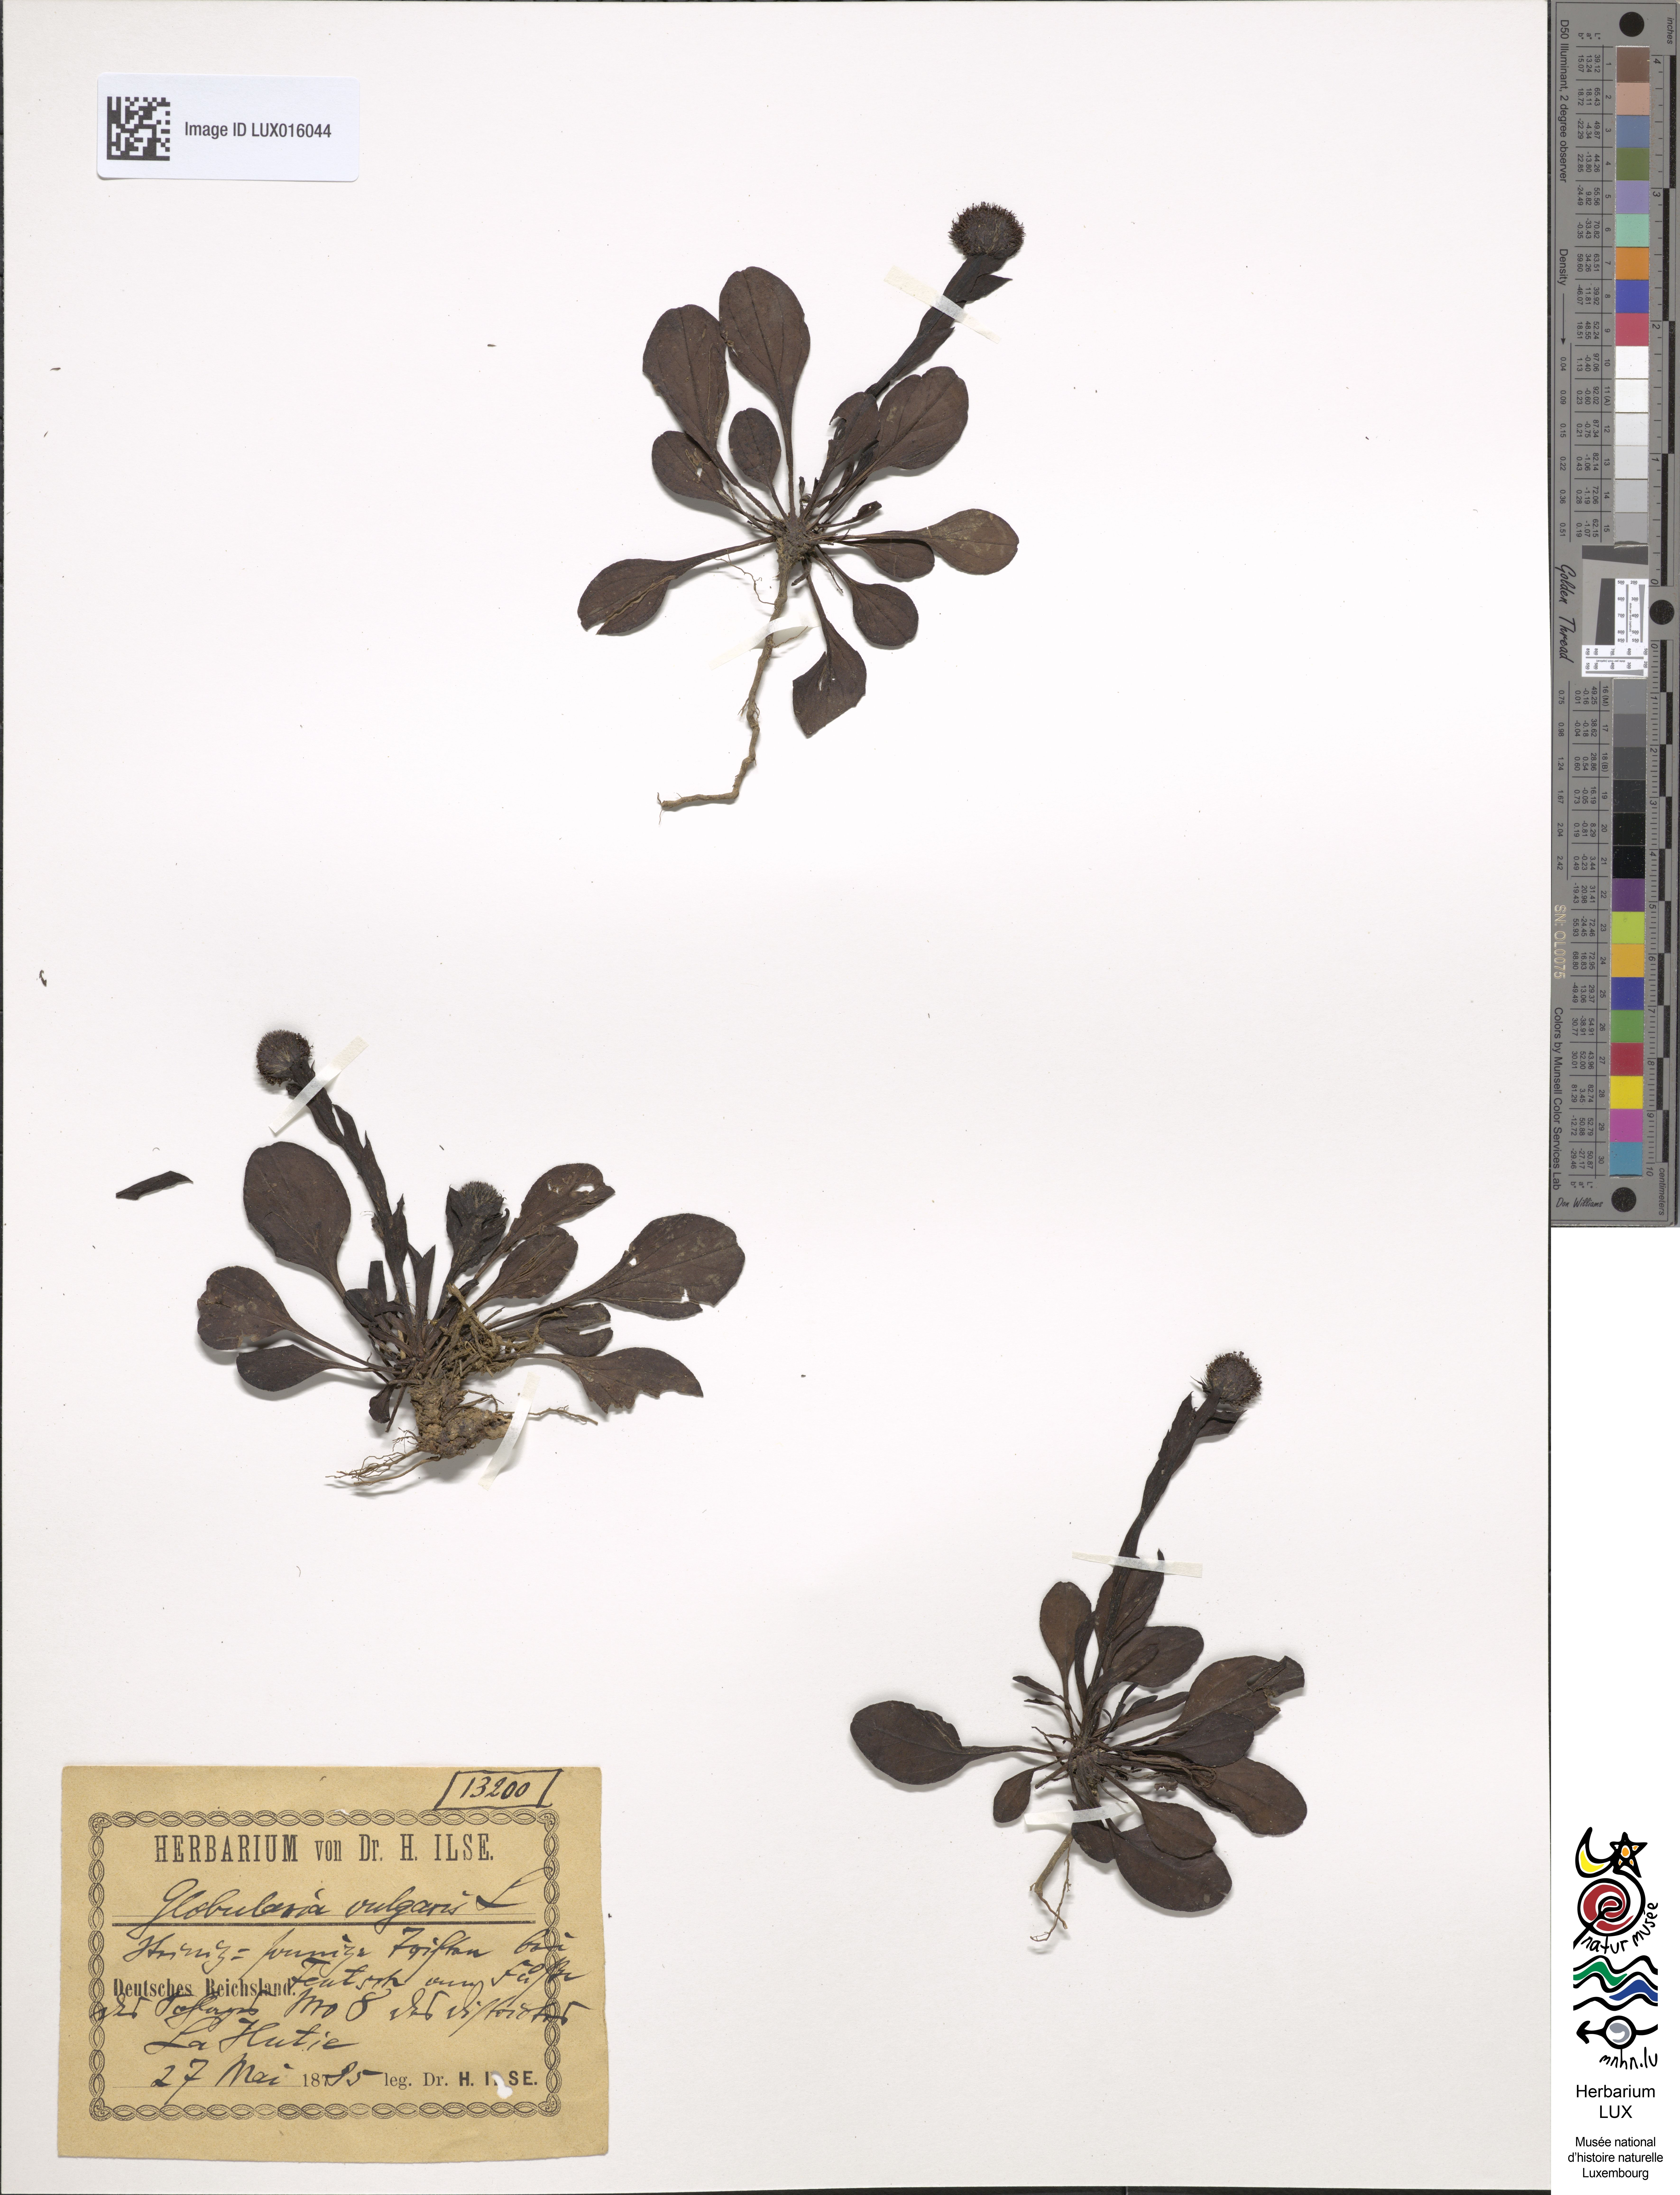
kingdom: Plantae
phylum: Tracheophyta
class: Magnoliopsida
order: Lamiales
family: Plantaginaceae
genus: Globularia
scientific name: Globularia bisnagarica
